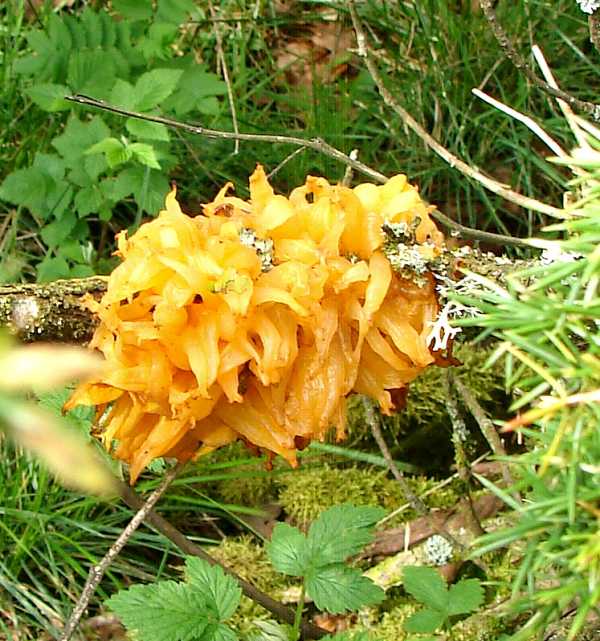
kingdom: Fungi
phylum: Basidiomycota
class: Pucciniomycetes
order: Pucciniales
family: Gymnosporangiaceae
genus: Gymnosporangium
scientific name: Gymnosporangium clavariiforme
